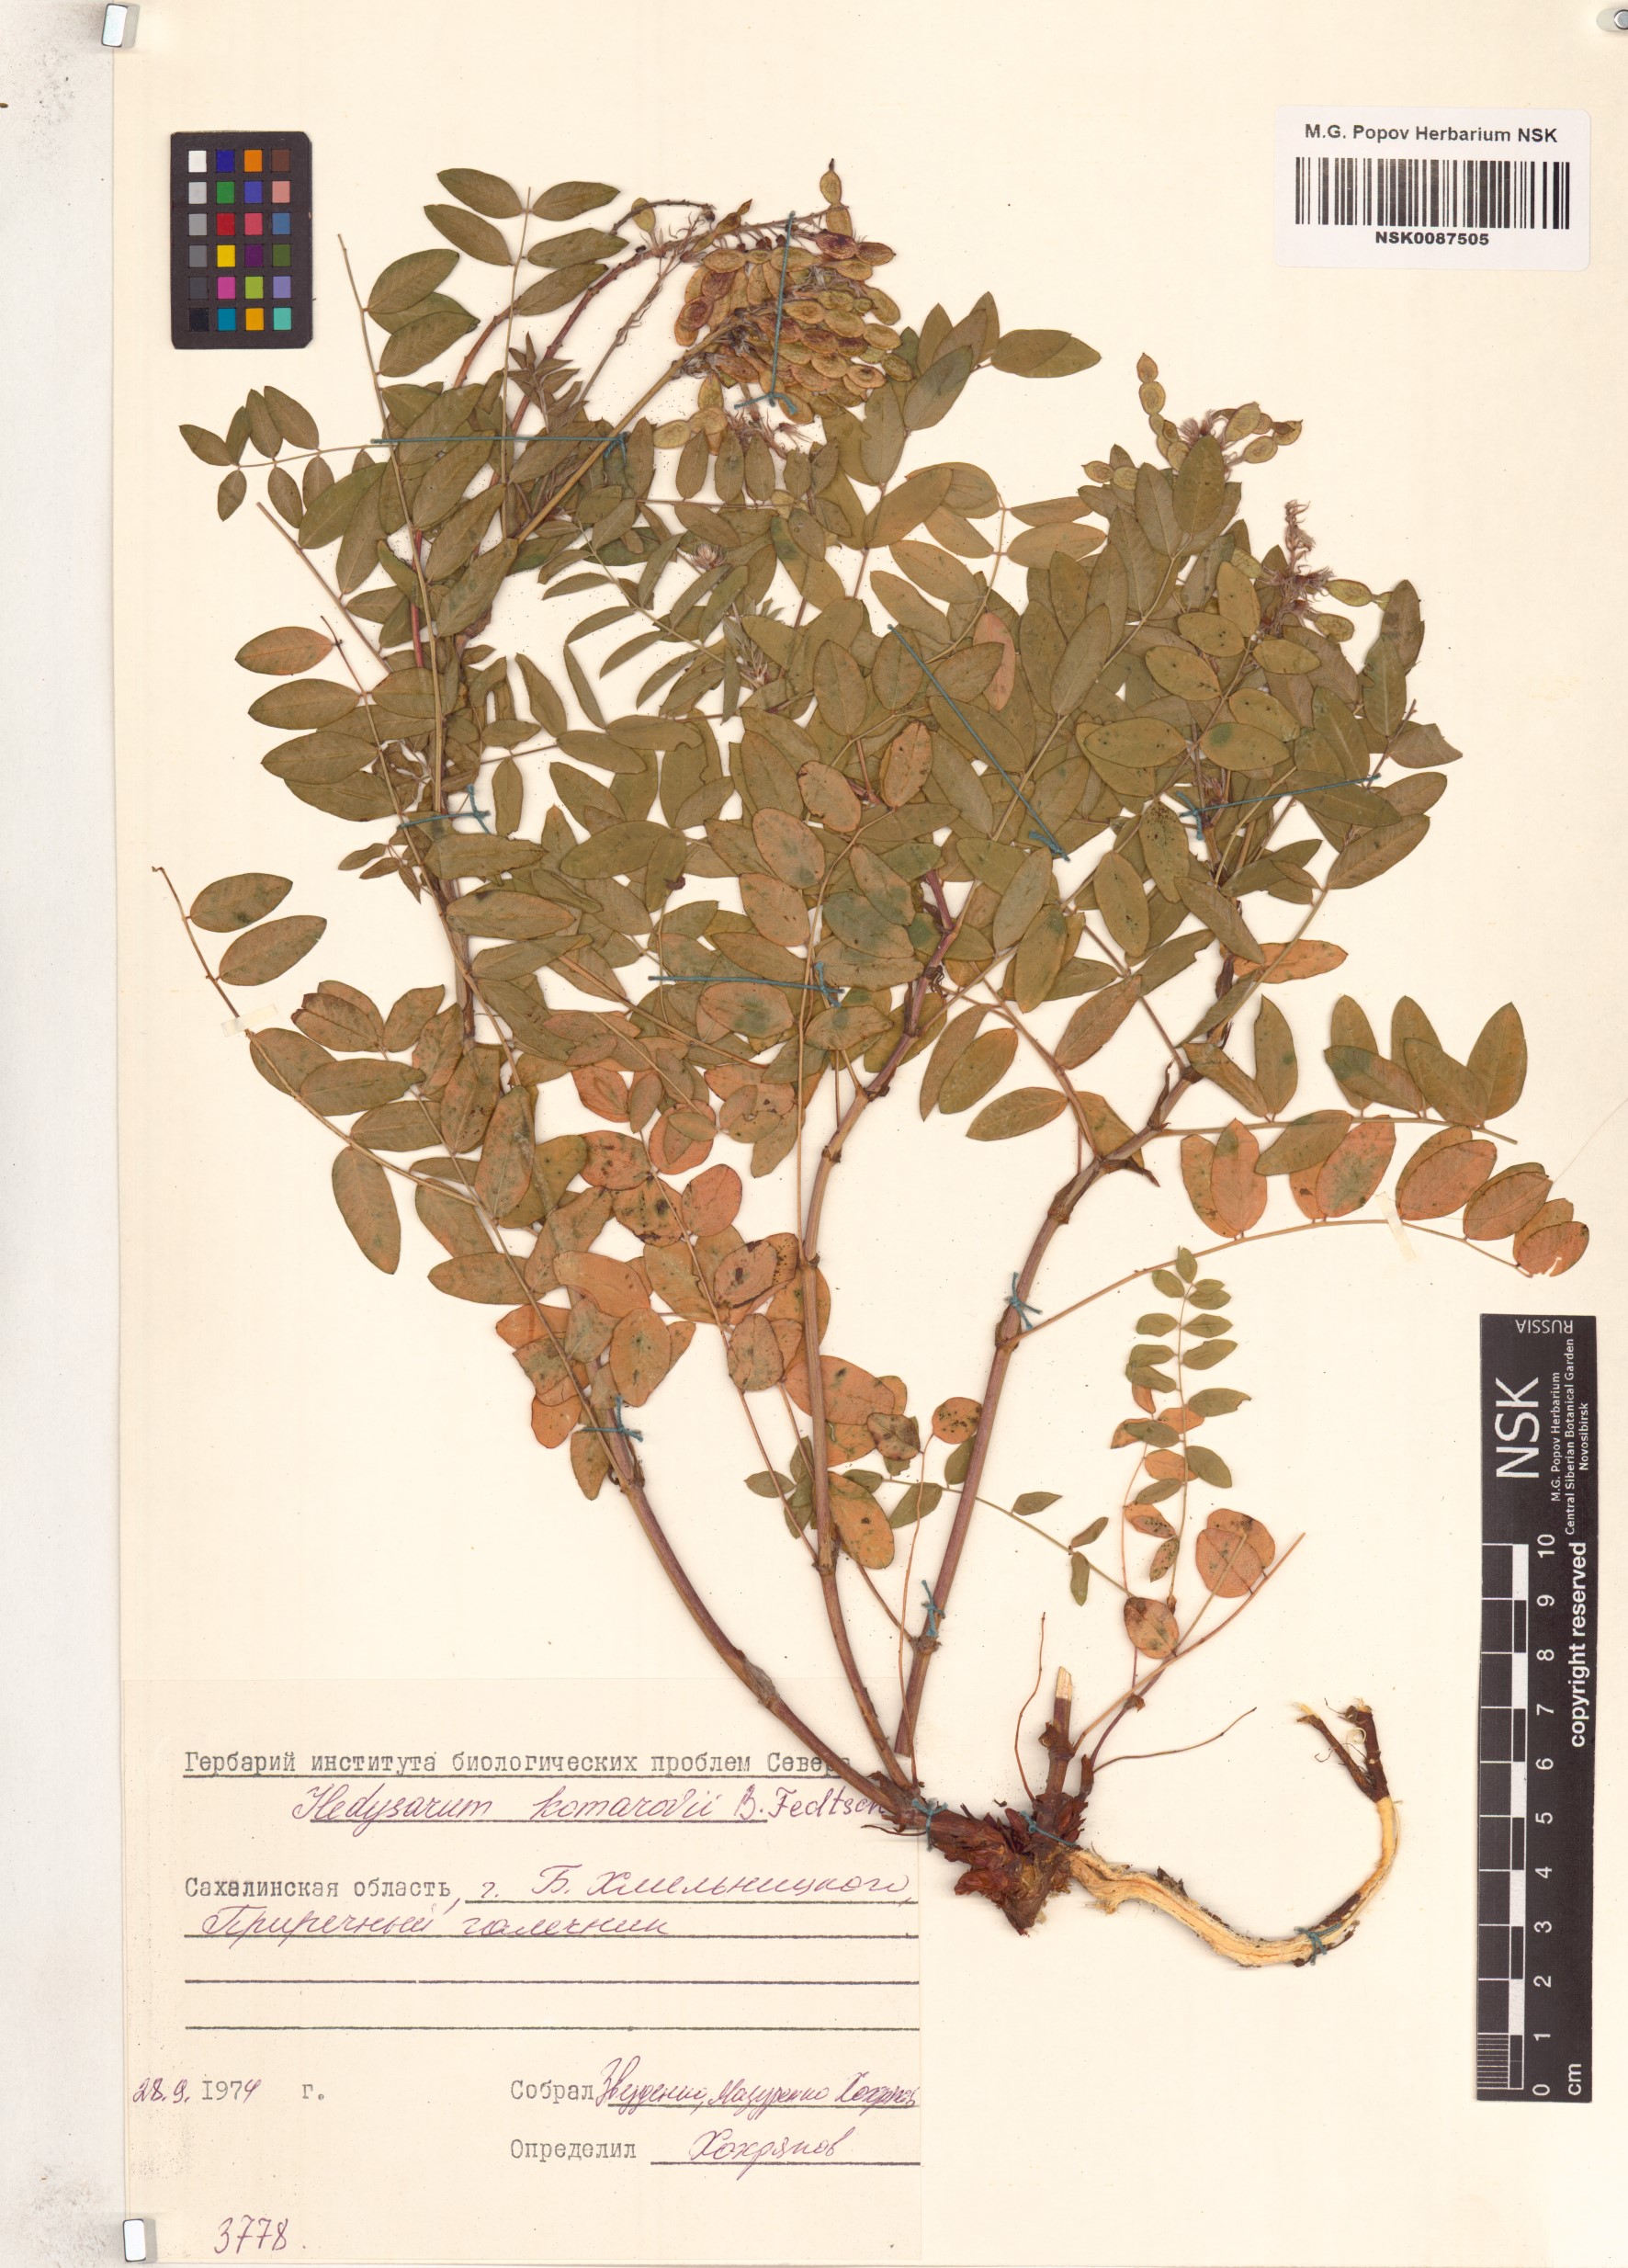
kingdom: Plantae
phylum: Tracheophyta
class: Magnoliopsida
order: Fabales
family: Fabaceae
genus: Hedysarum
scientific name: Hedysarum vicioides
